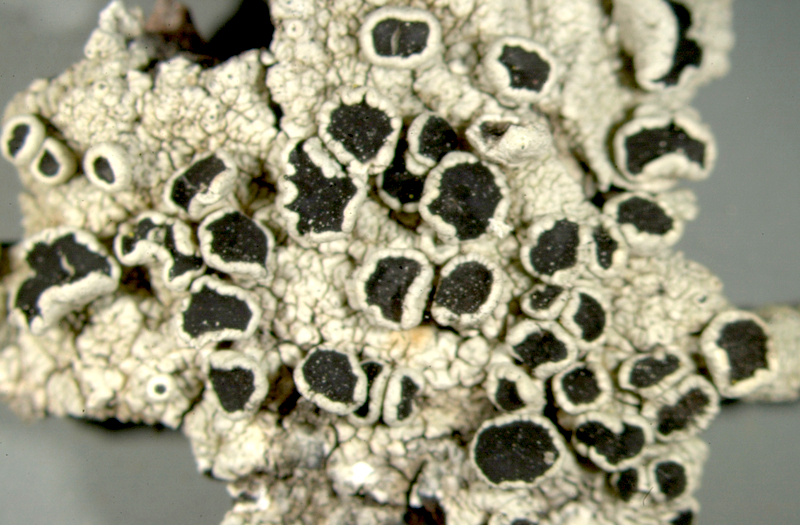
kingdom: Fungi
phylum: Ascomycota
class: Lecanoromycetes
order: Pertusariales
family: Pertusariaceae
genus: Pertusaria
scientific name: Pertusaria
